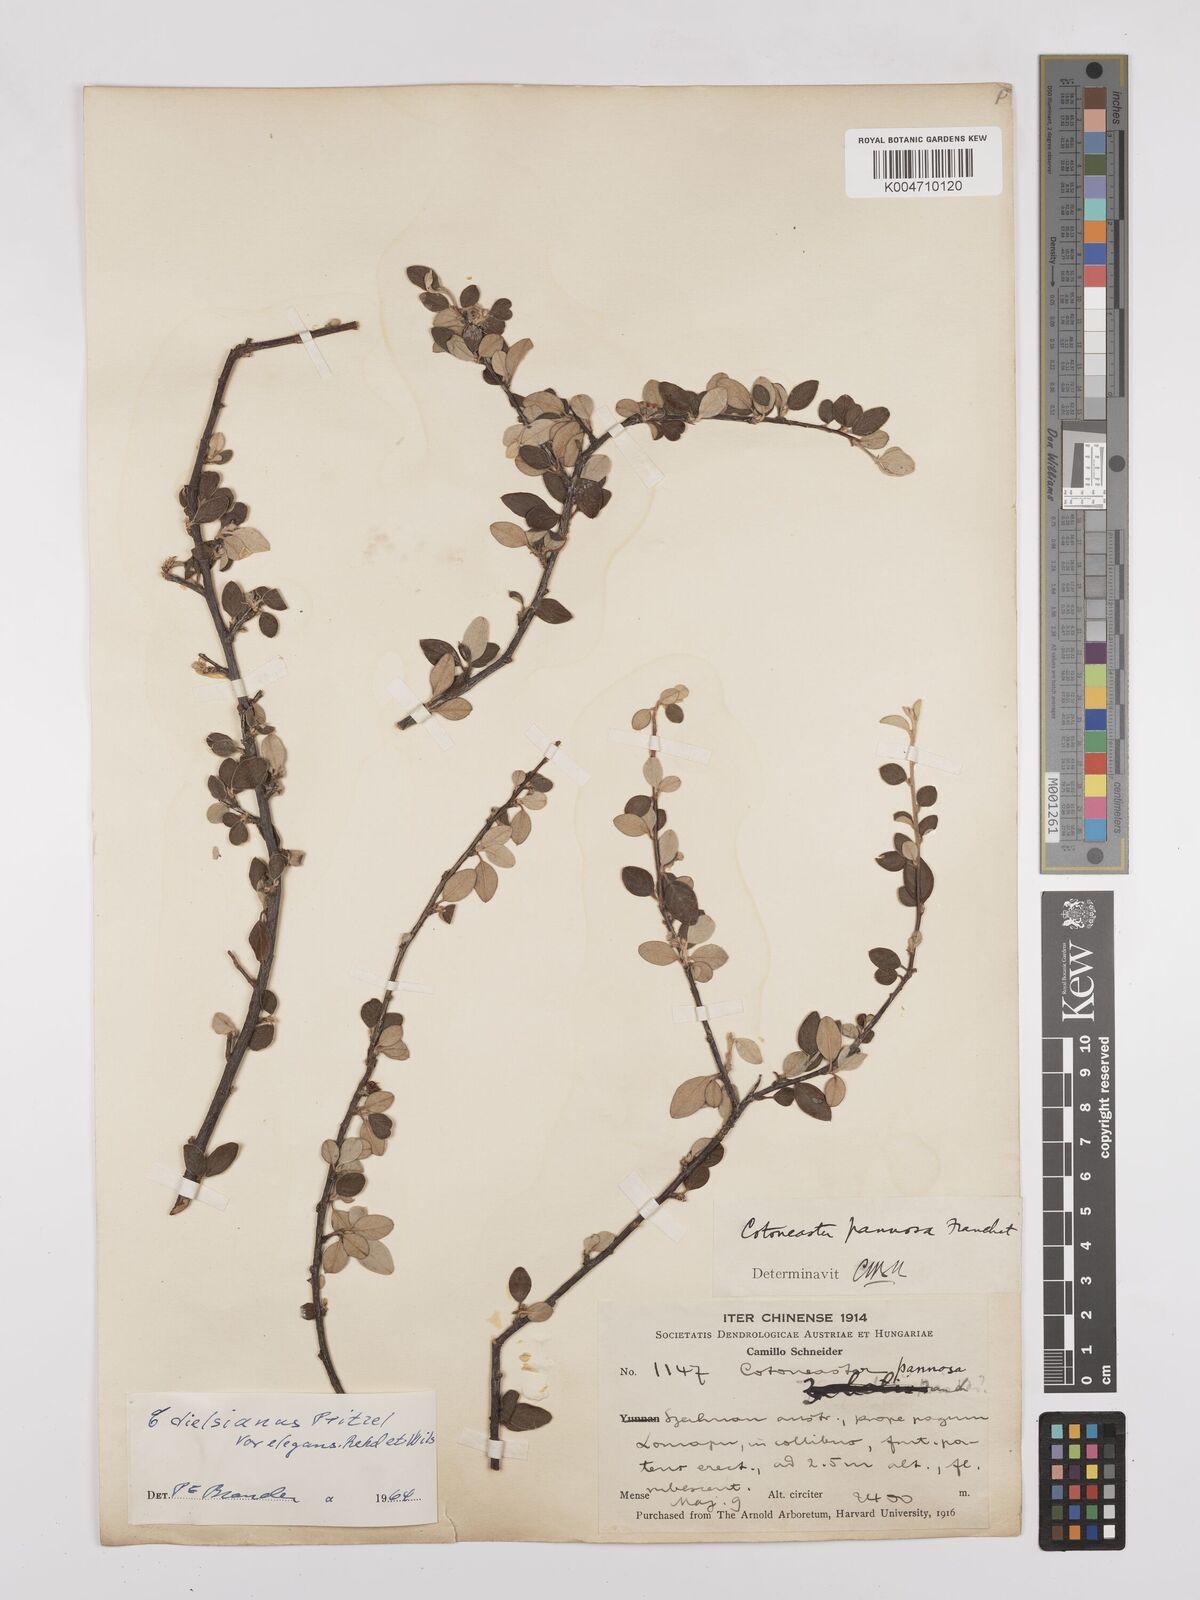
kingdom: Plantae
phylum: Tracheophyta
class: Magnoliopsida
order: Rosales
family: Rosaceae
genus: Cotoneaster
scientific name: Cotoneaster dielsianus
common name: Diels's cotoneaster
